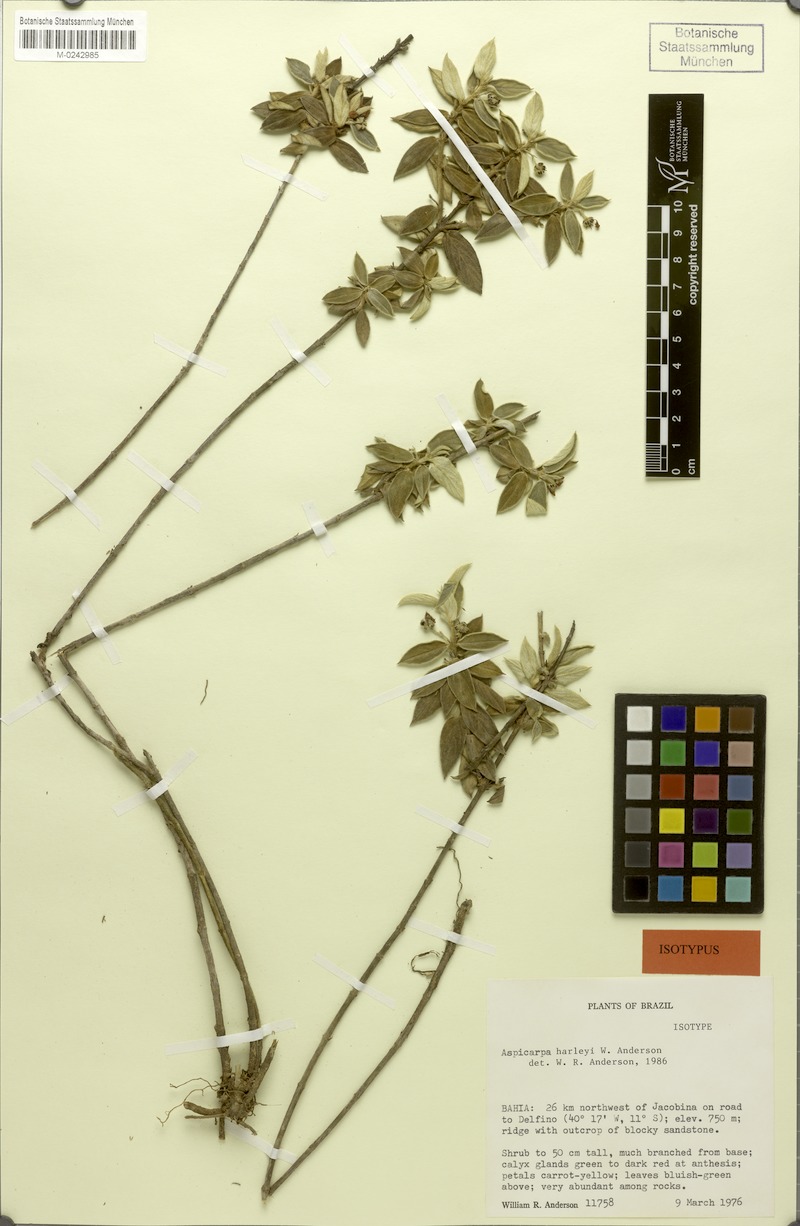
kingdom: Plantae
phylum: Tracheophyta
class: Magnoliopsida
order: Malpighiales
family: Malpighiaceae
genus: Aspicarpa
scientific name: Aspicarpa harleyi
